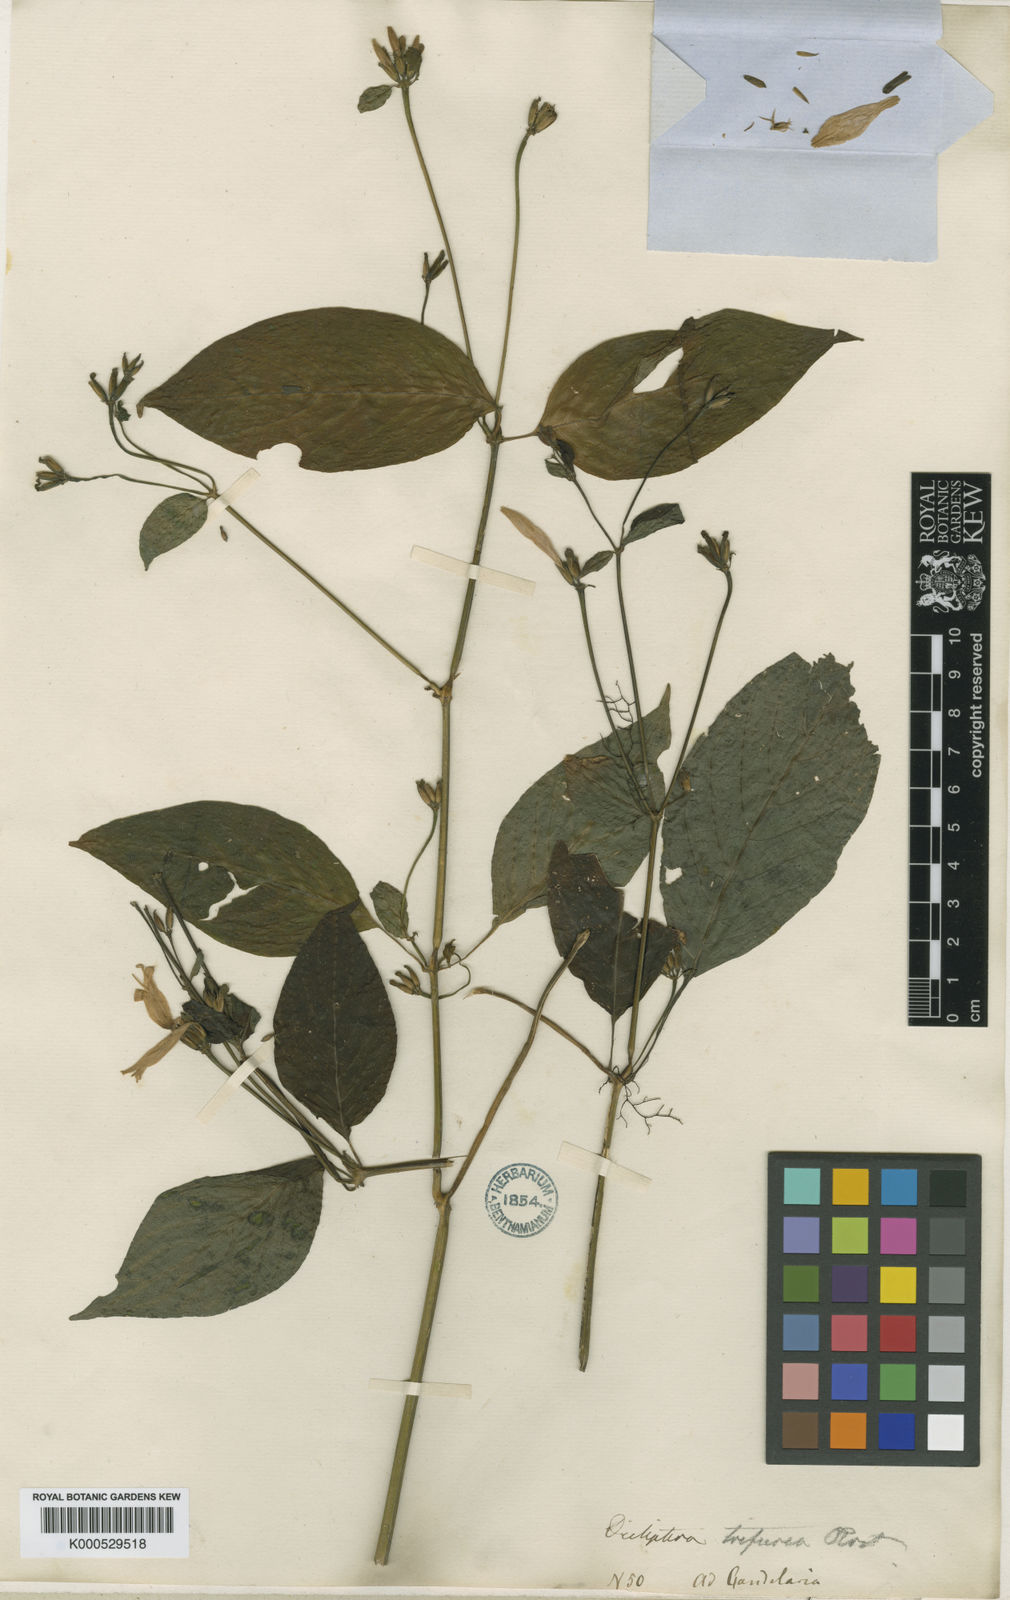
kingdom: Plantae
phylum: Tracheophyta
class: Magnoliopsida
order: Lamiales
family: Acanthaceae
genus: Dicliptera
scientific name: Dicliptera trifurca
